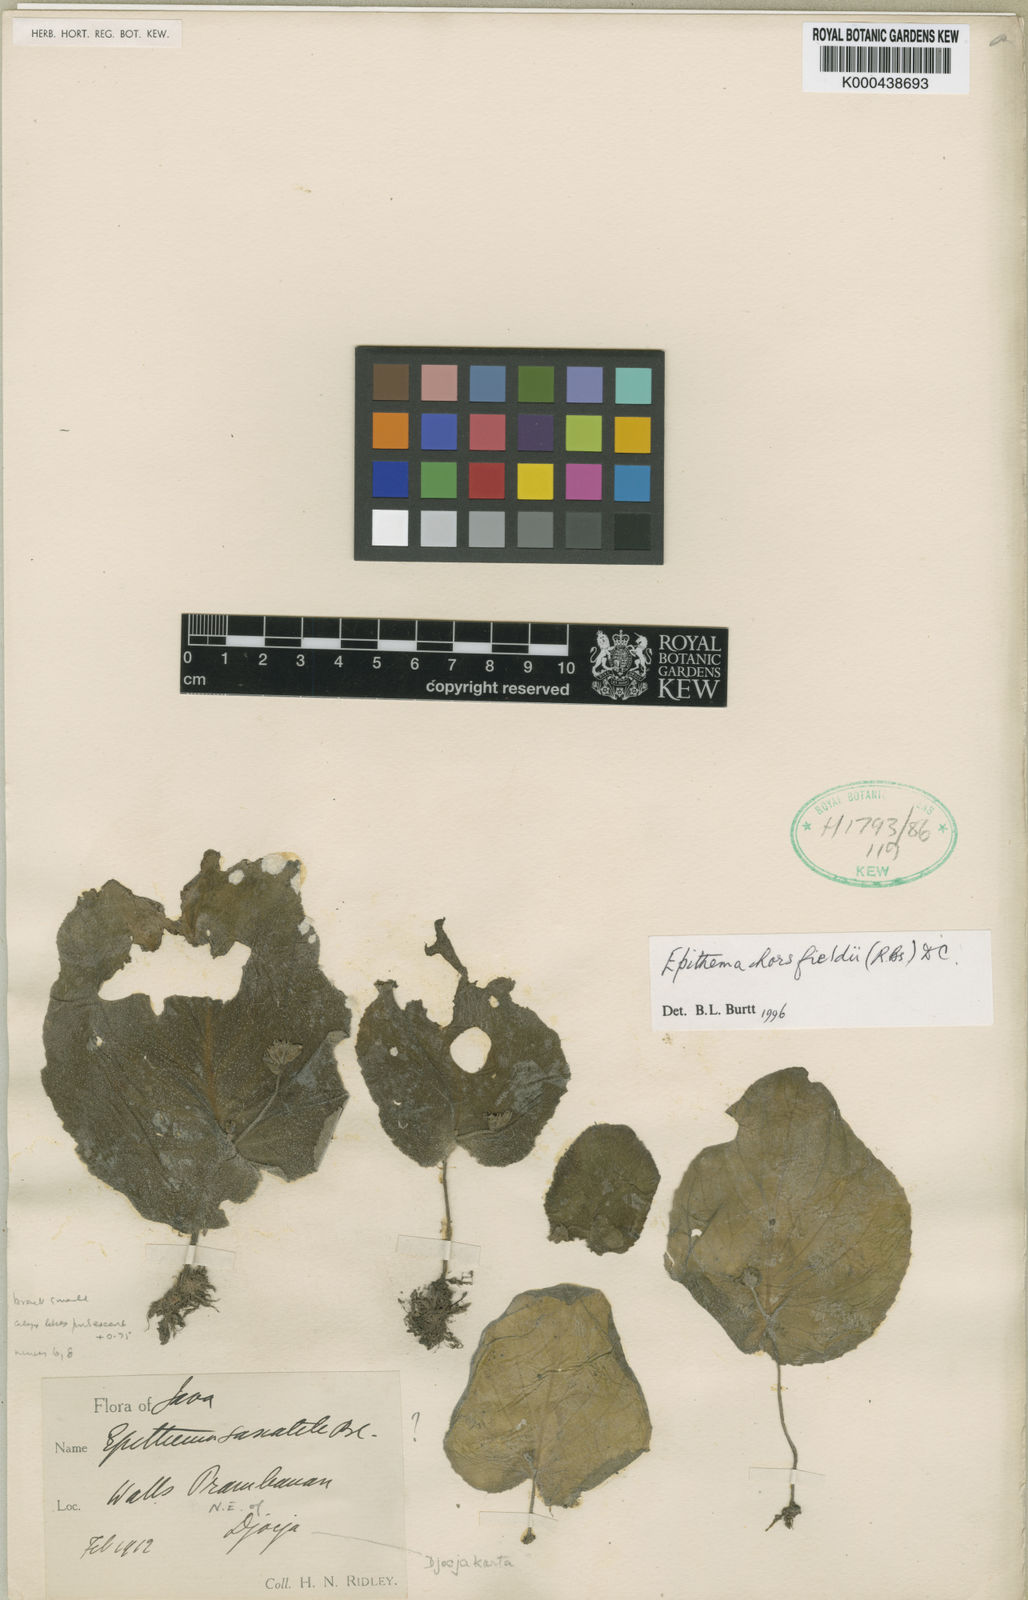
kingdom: Plantae
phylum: Tracheophyta
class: Magnoliopsida
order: Lamiales
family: Gesneriaceae
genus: Epithema
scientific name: Epithema horsfieldii
